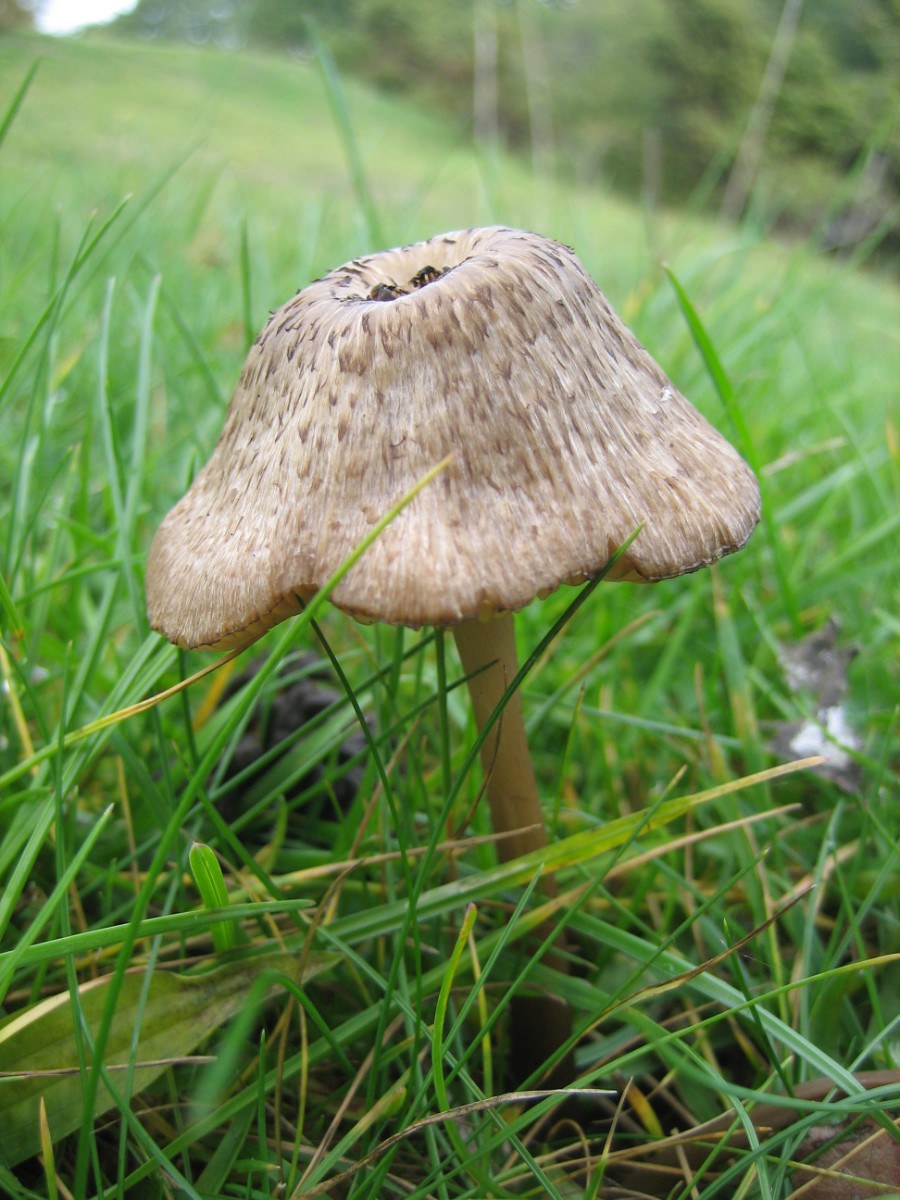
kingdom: Fungi
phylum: Basidiomycota
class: Agaricomycetes
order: Agaricales
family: Entolomataceae
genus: Entoloma
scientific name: Entoloma
